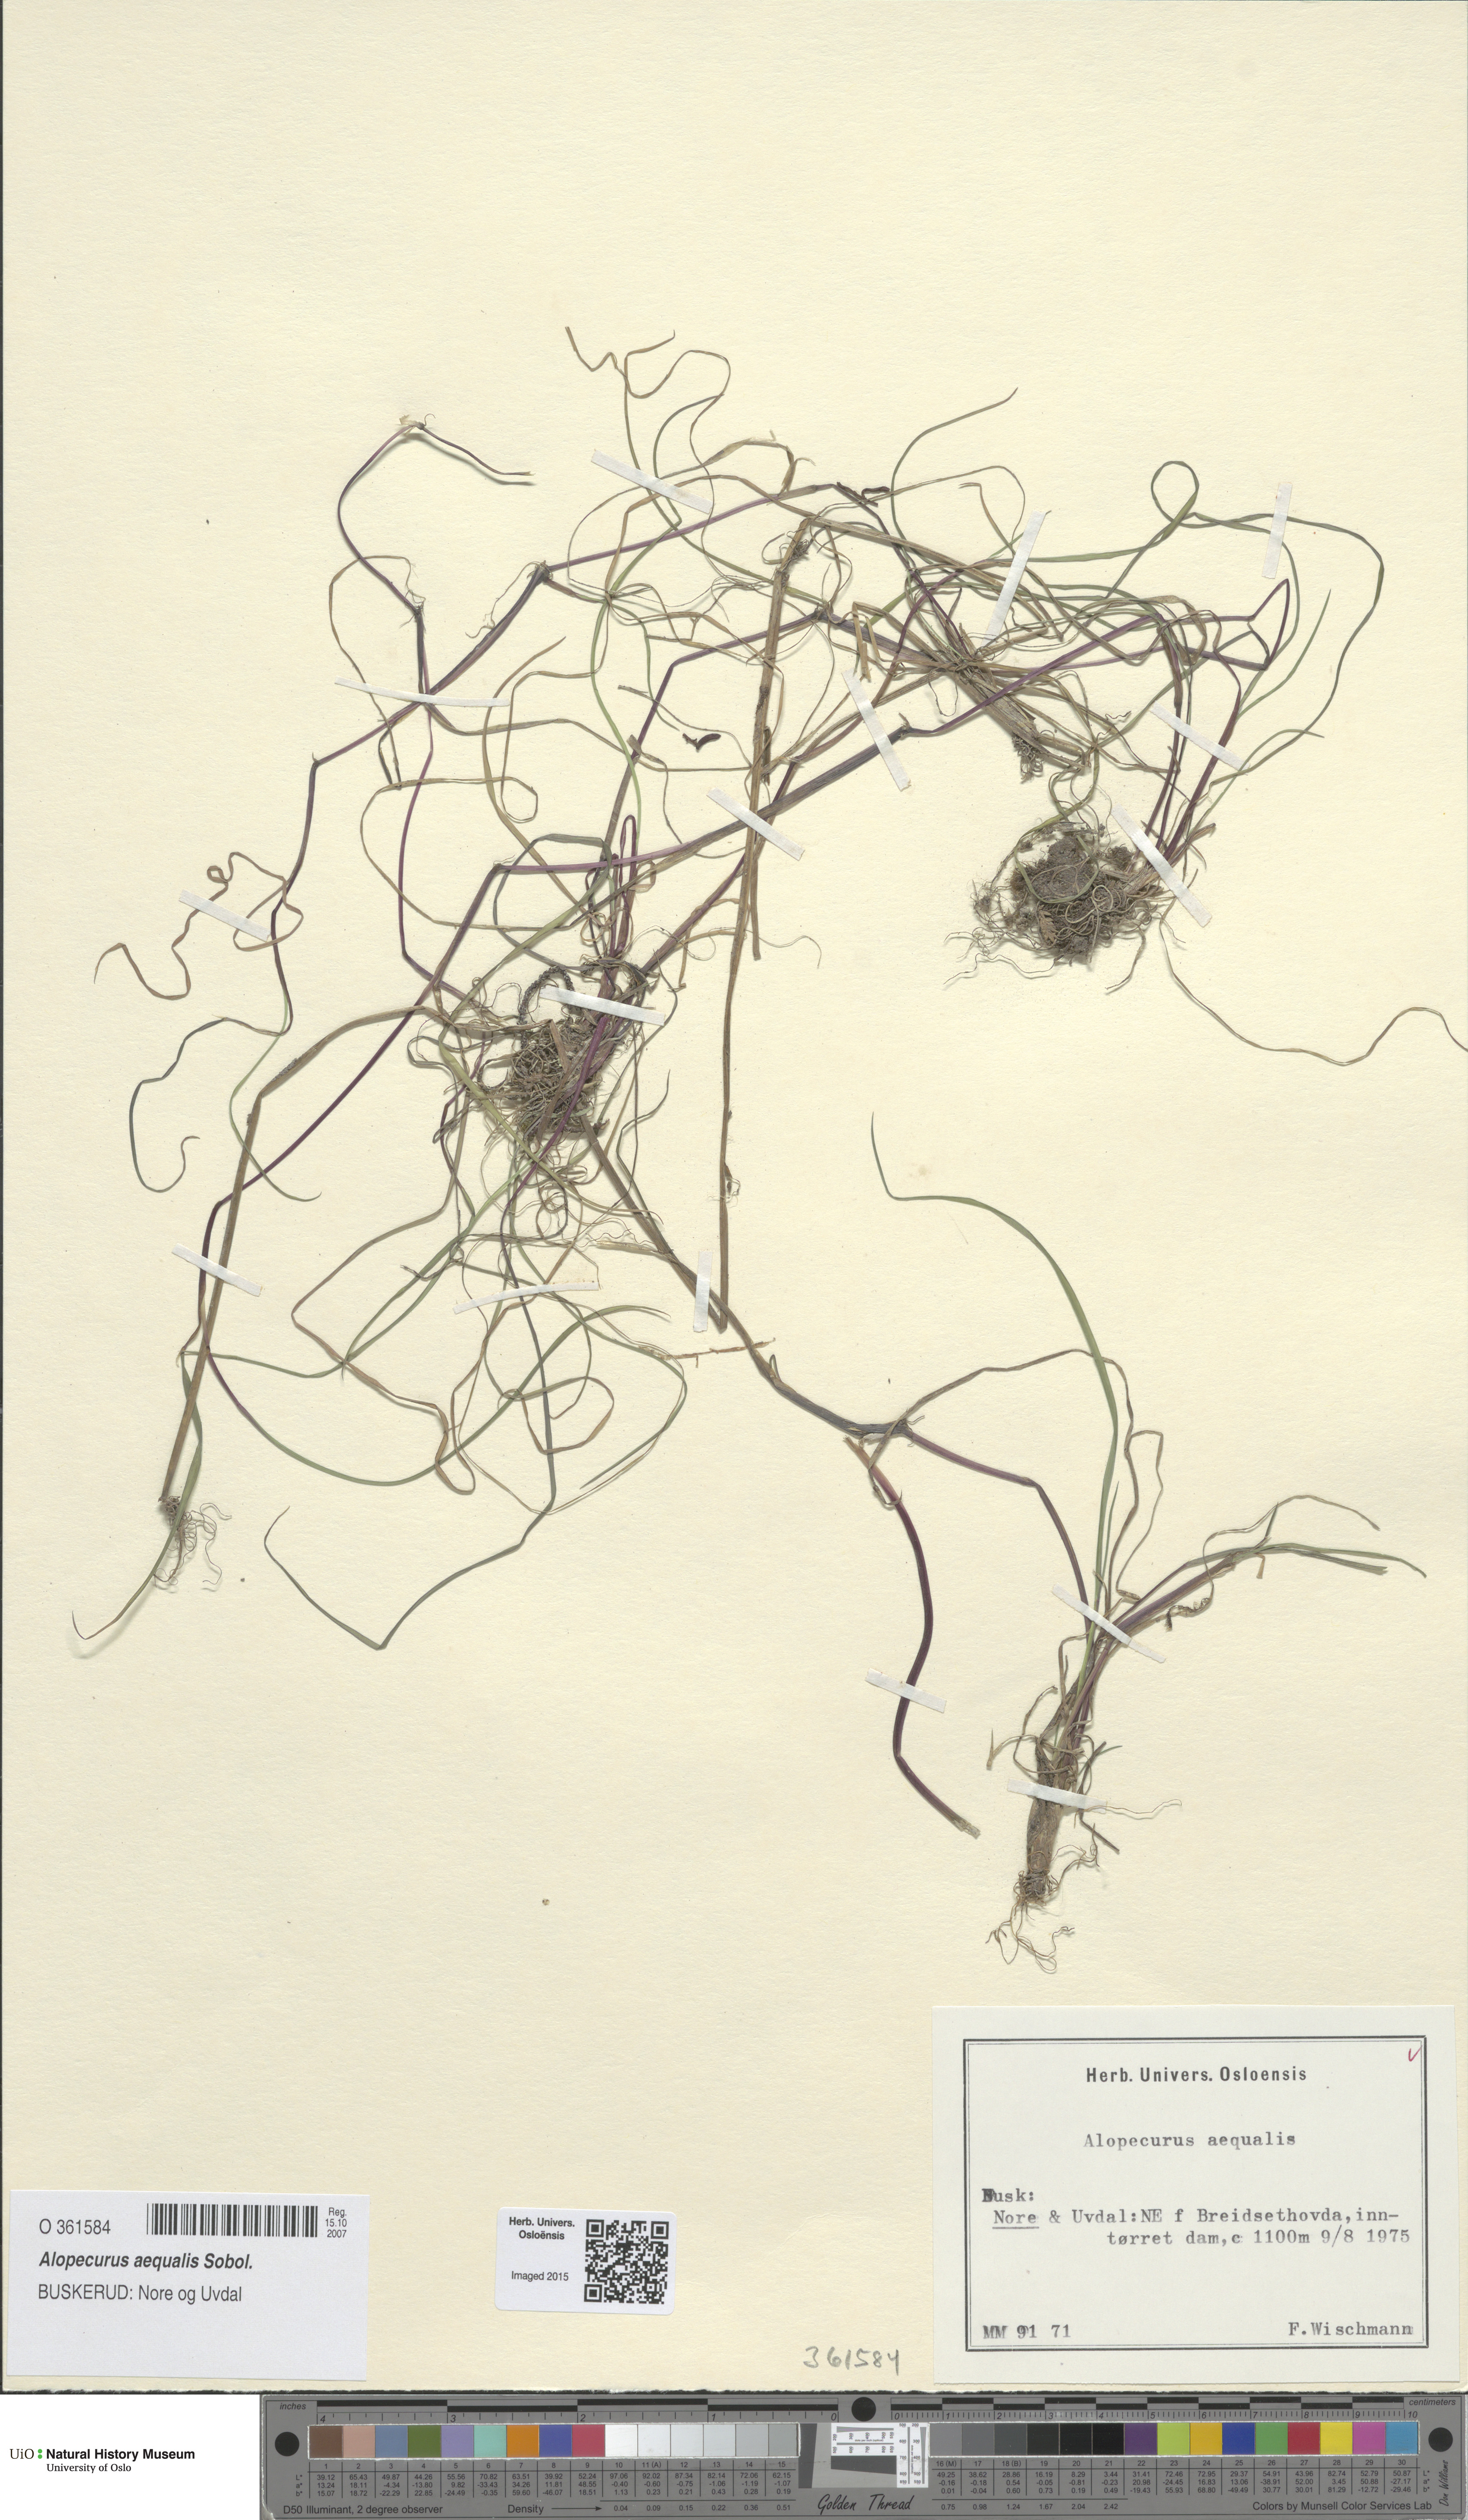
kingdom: Plantae
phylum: Tracheophyta
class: Liliopsida
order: Poales
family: Poaceae
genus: Alopecurus
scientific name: Alopecurus aequalis
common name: Orange foxtail
